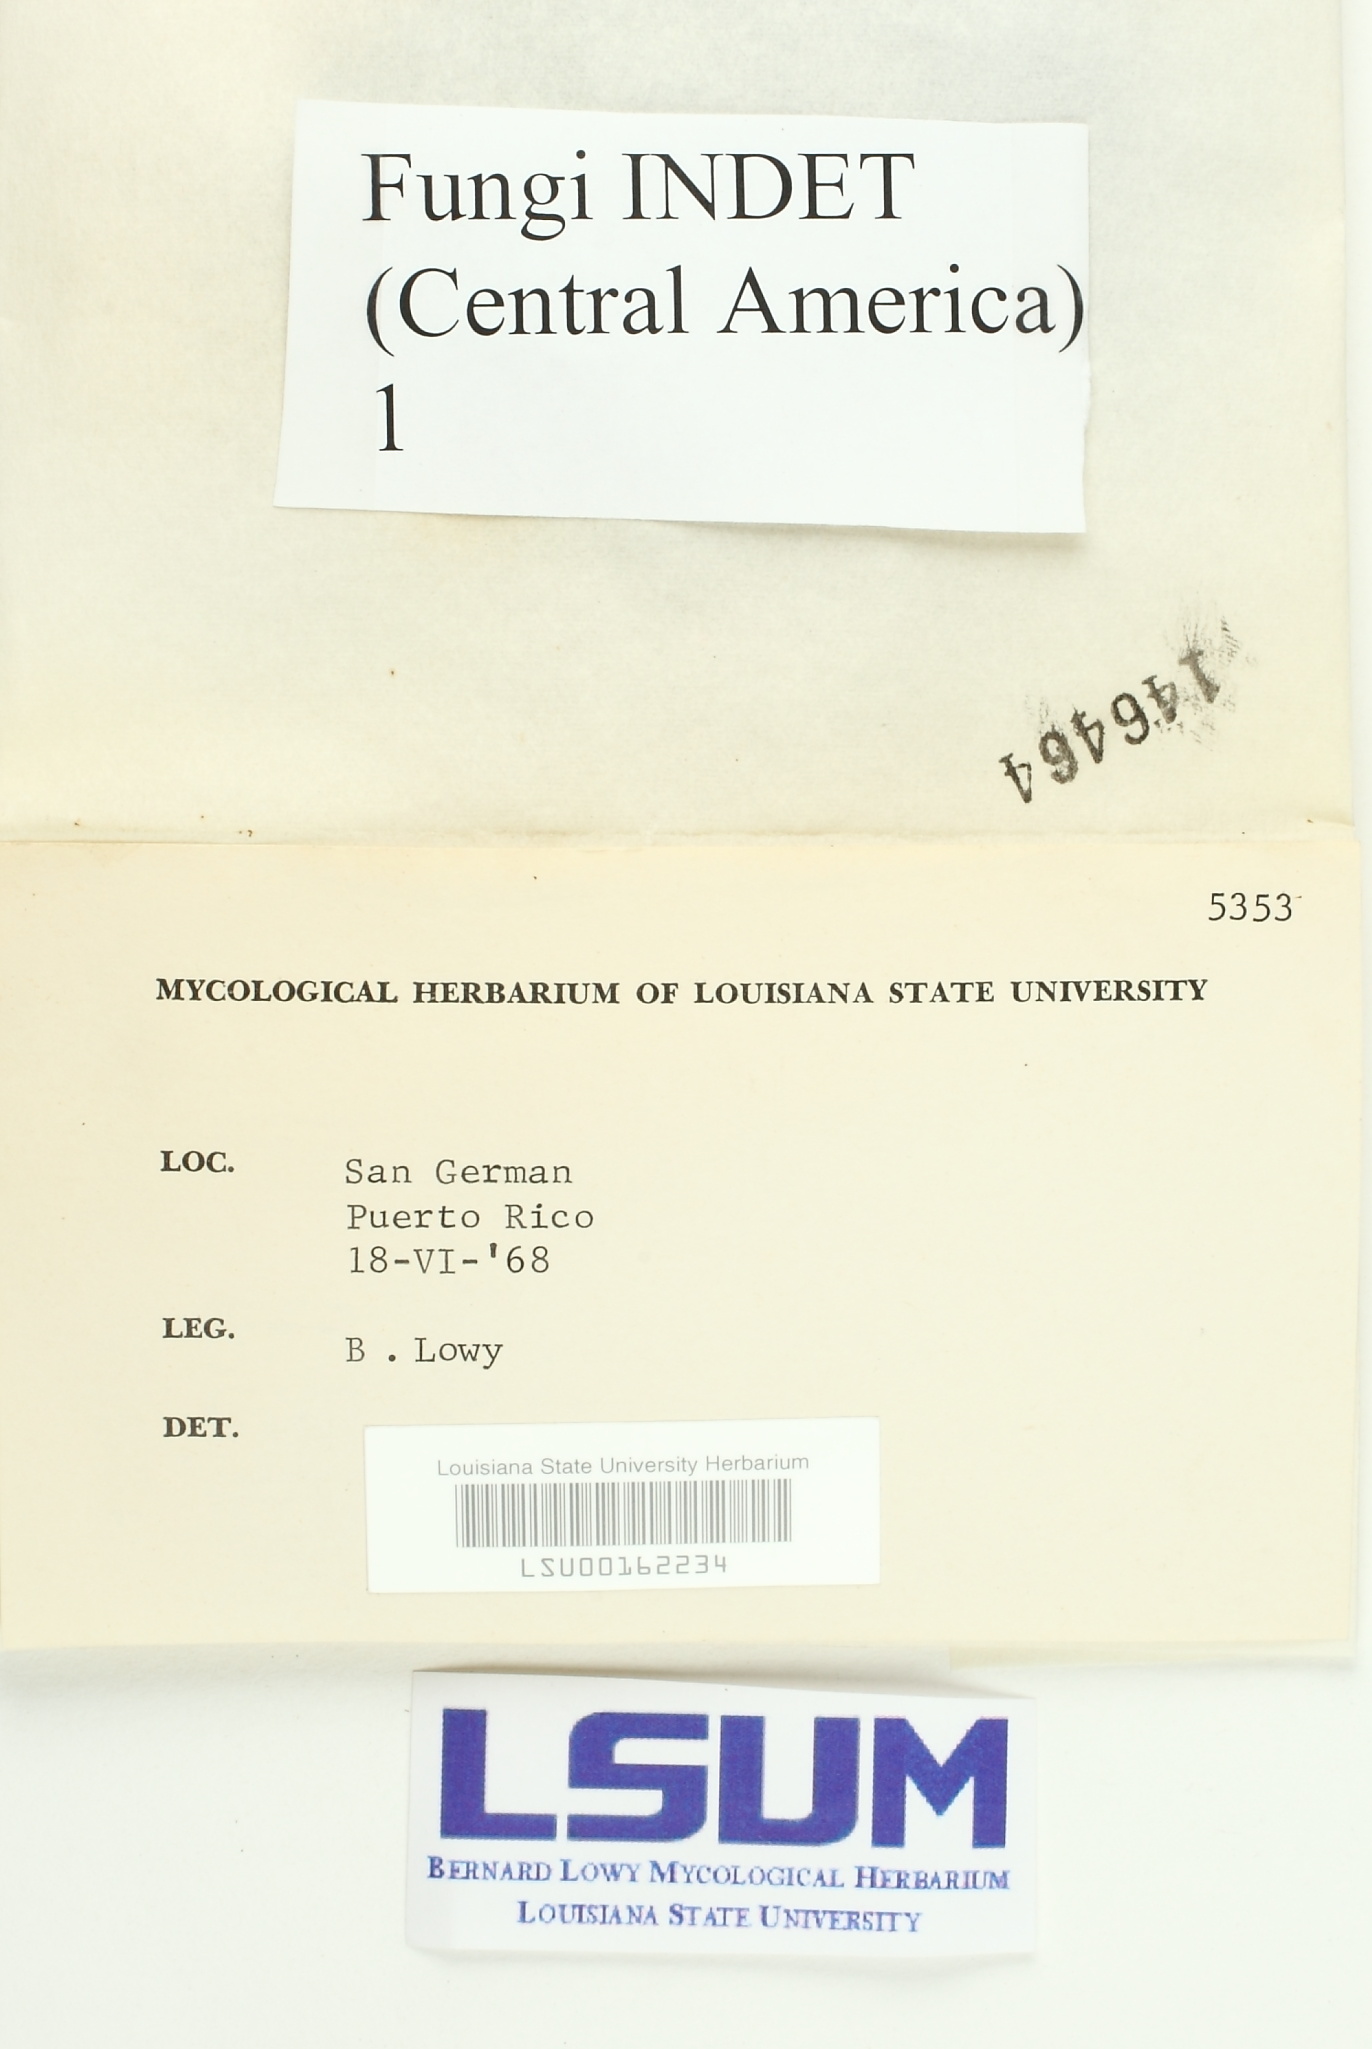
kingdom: Fungi
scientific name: Fungi
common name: Fungi
